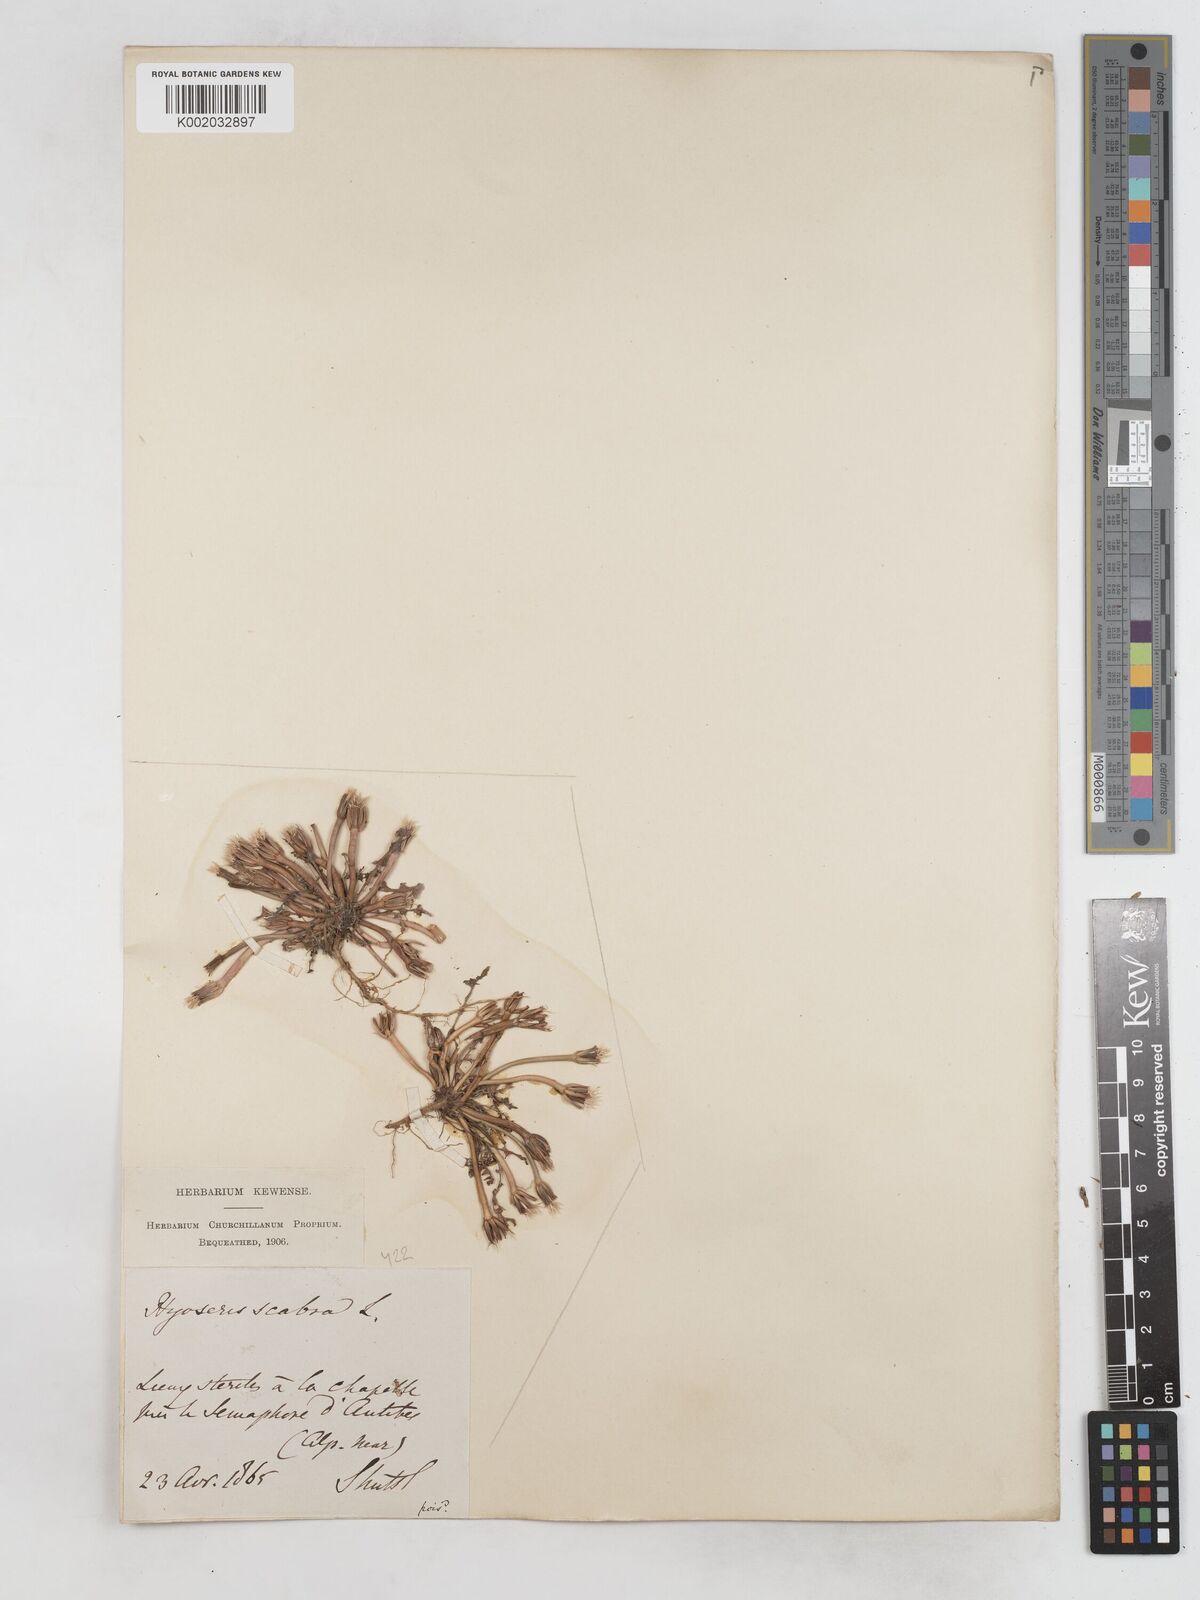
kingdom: Plantae
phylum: Tracheophyta
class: Magnoliopsida
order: Asterales
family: Asteraceae
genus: Hyoseris
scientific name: Hyoseris scabra
